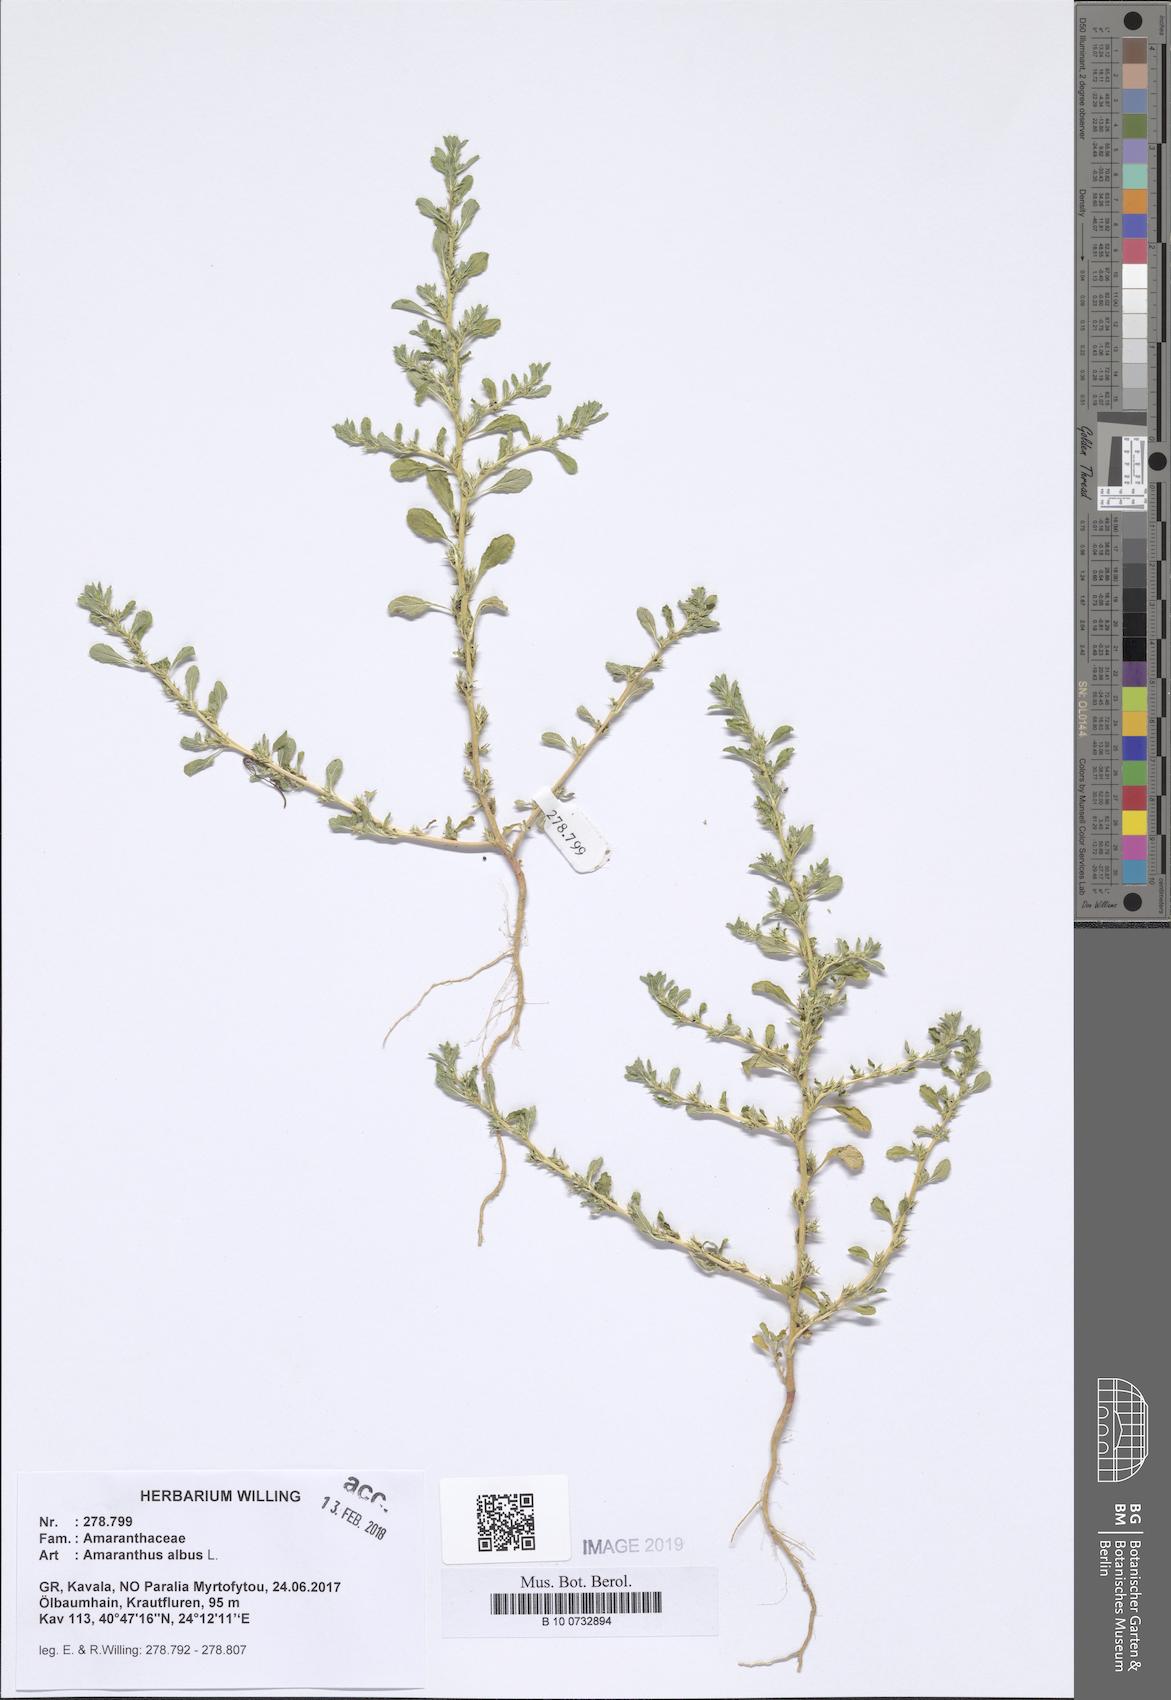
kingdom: Plantae
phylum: Tracheophyta
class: Magnoliopsida
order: Caryophyllales
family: Amaranthaceae
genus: Amaranthus
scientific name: Amaranthus albus
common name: White pigweed
